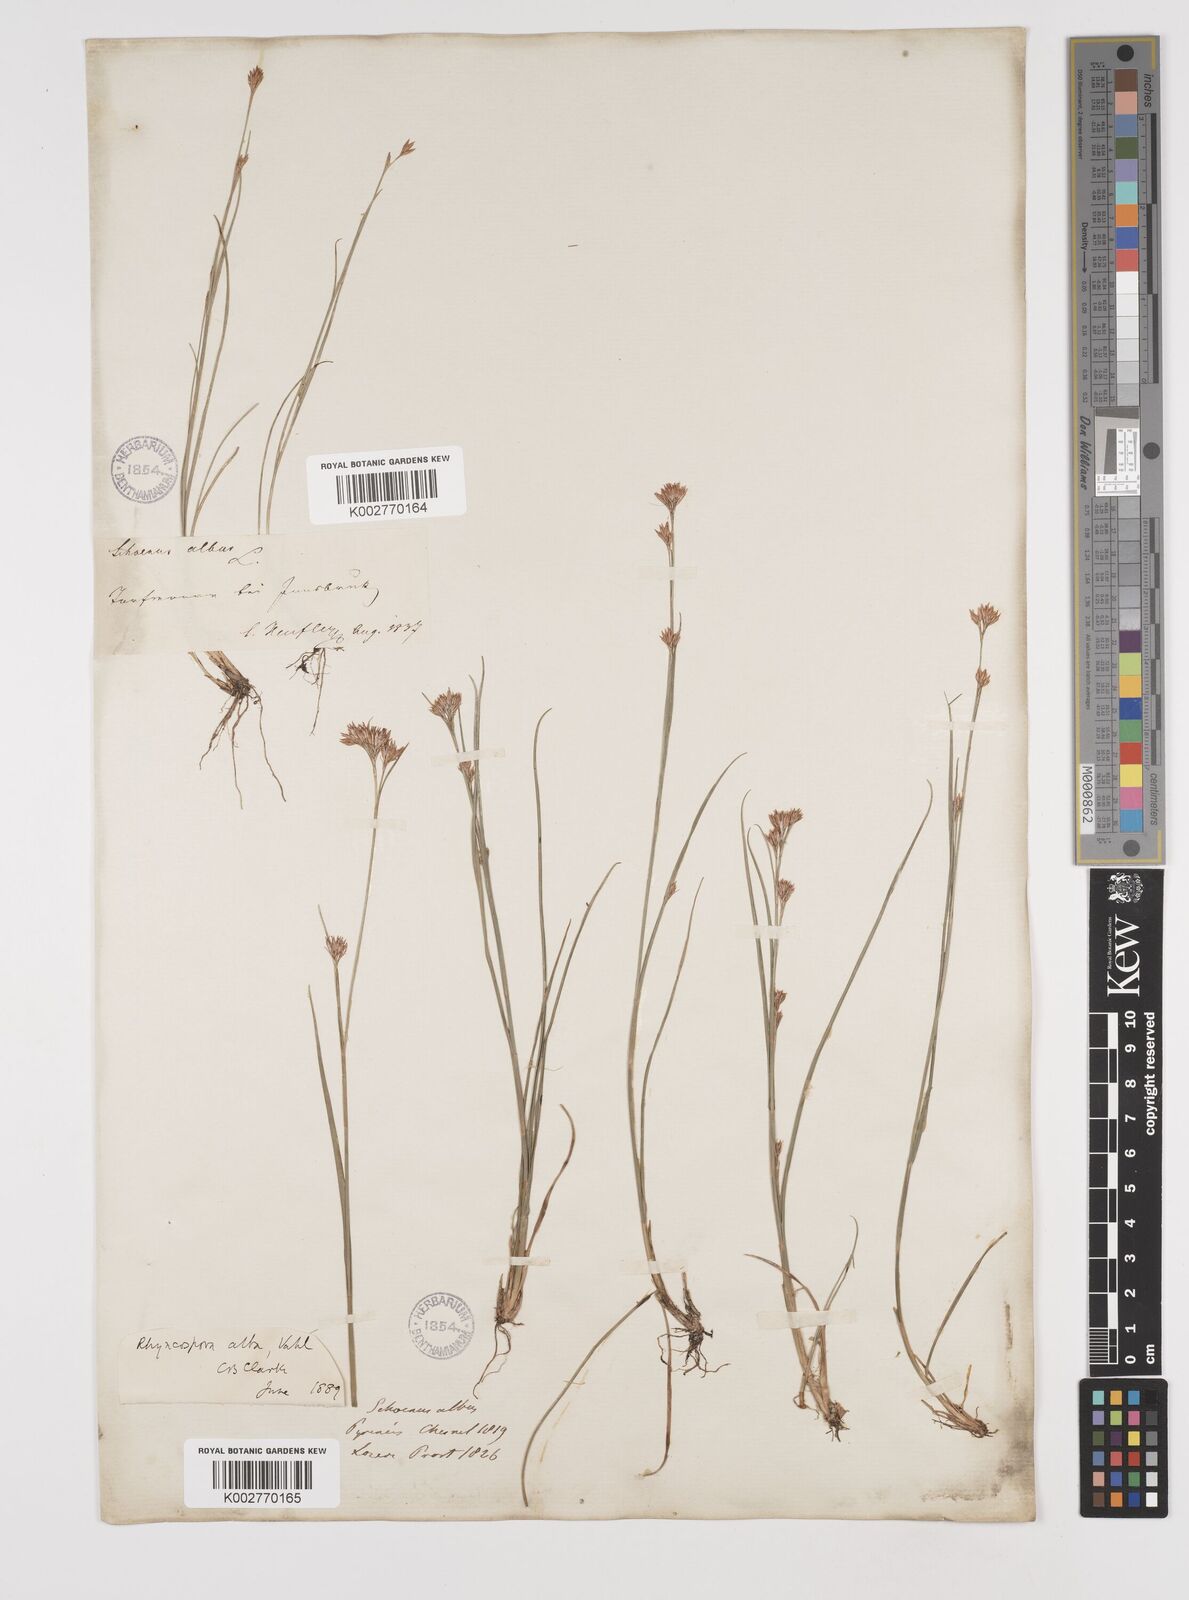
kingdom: Plantae
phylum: Tracheophyta
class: Liliopsida
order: Poales
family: Cyperaceae
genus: Rhynchospora
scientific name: Rhynchospora
